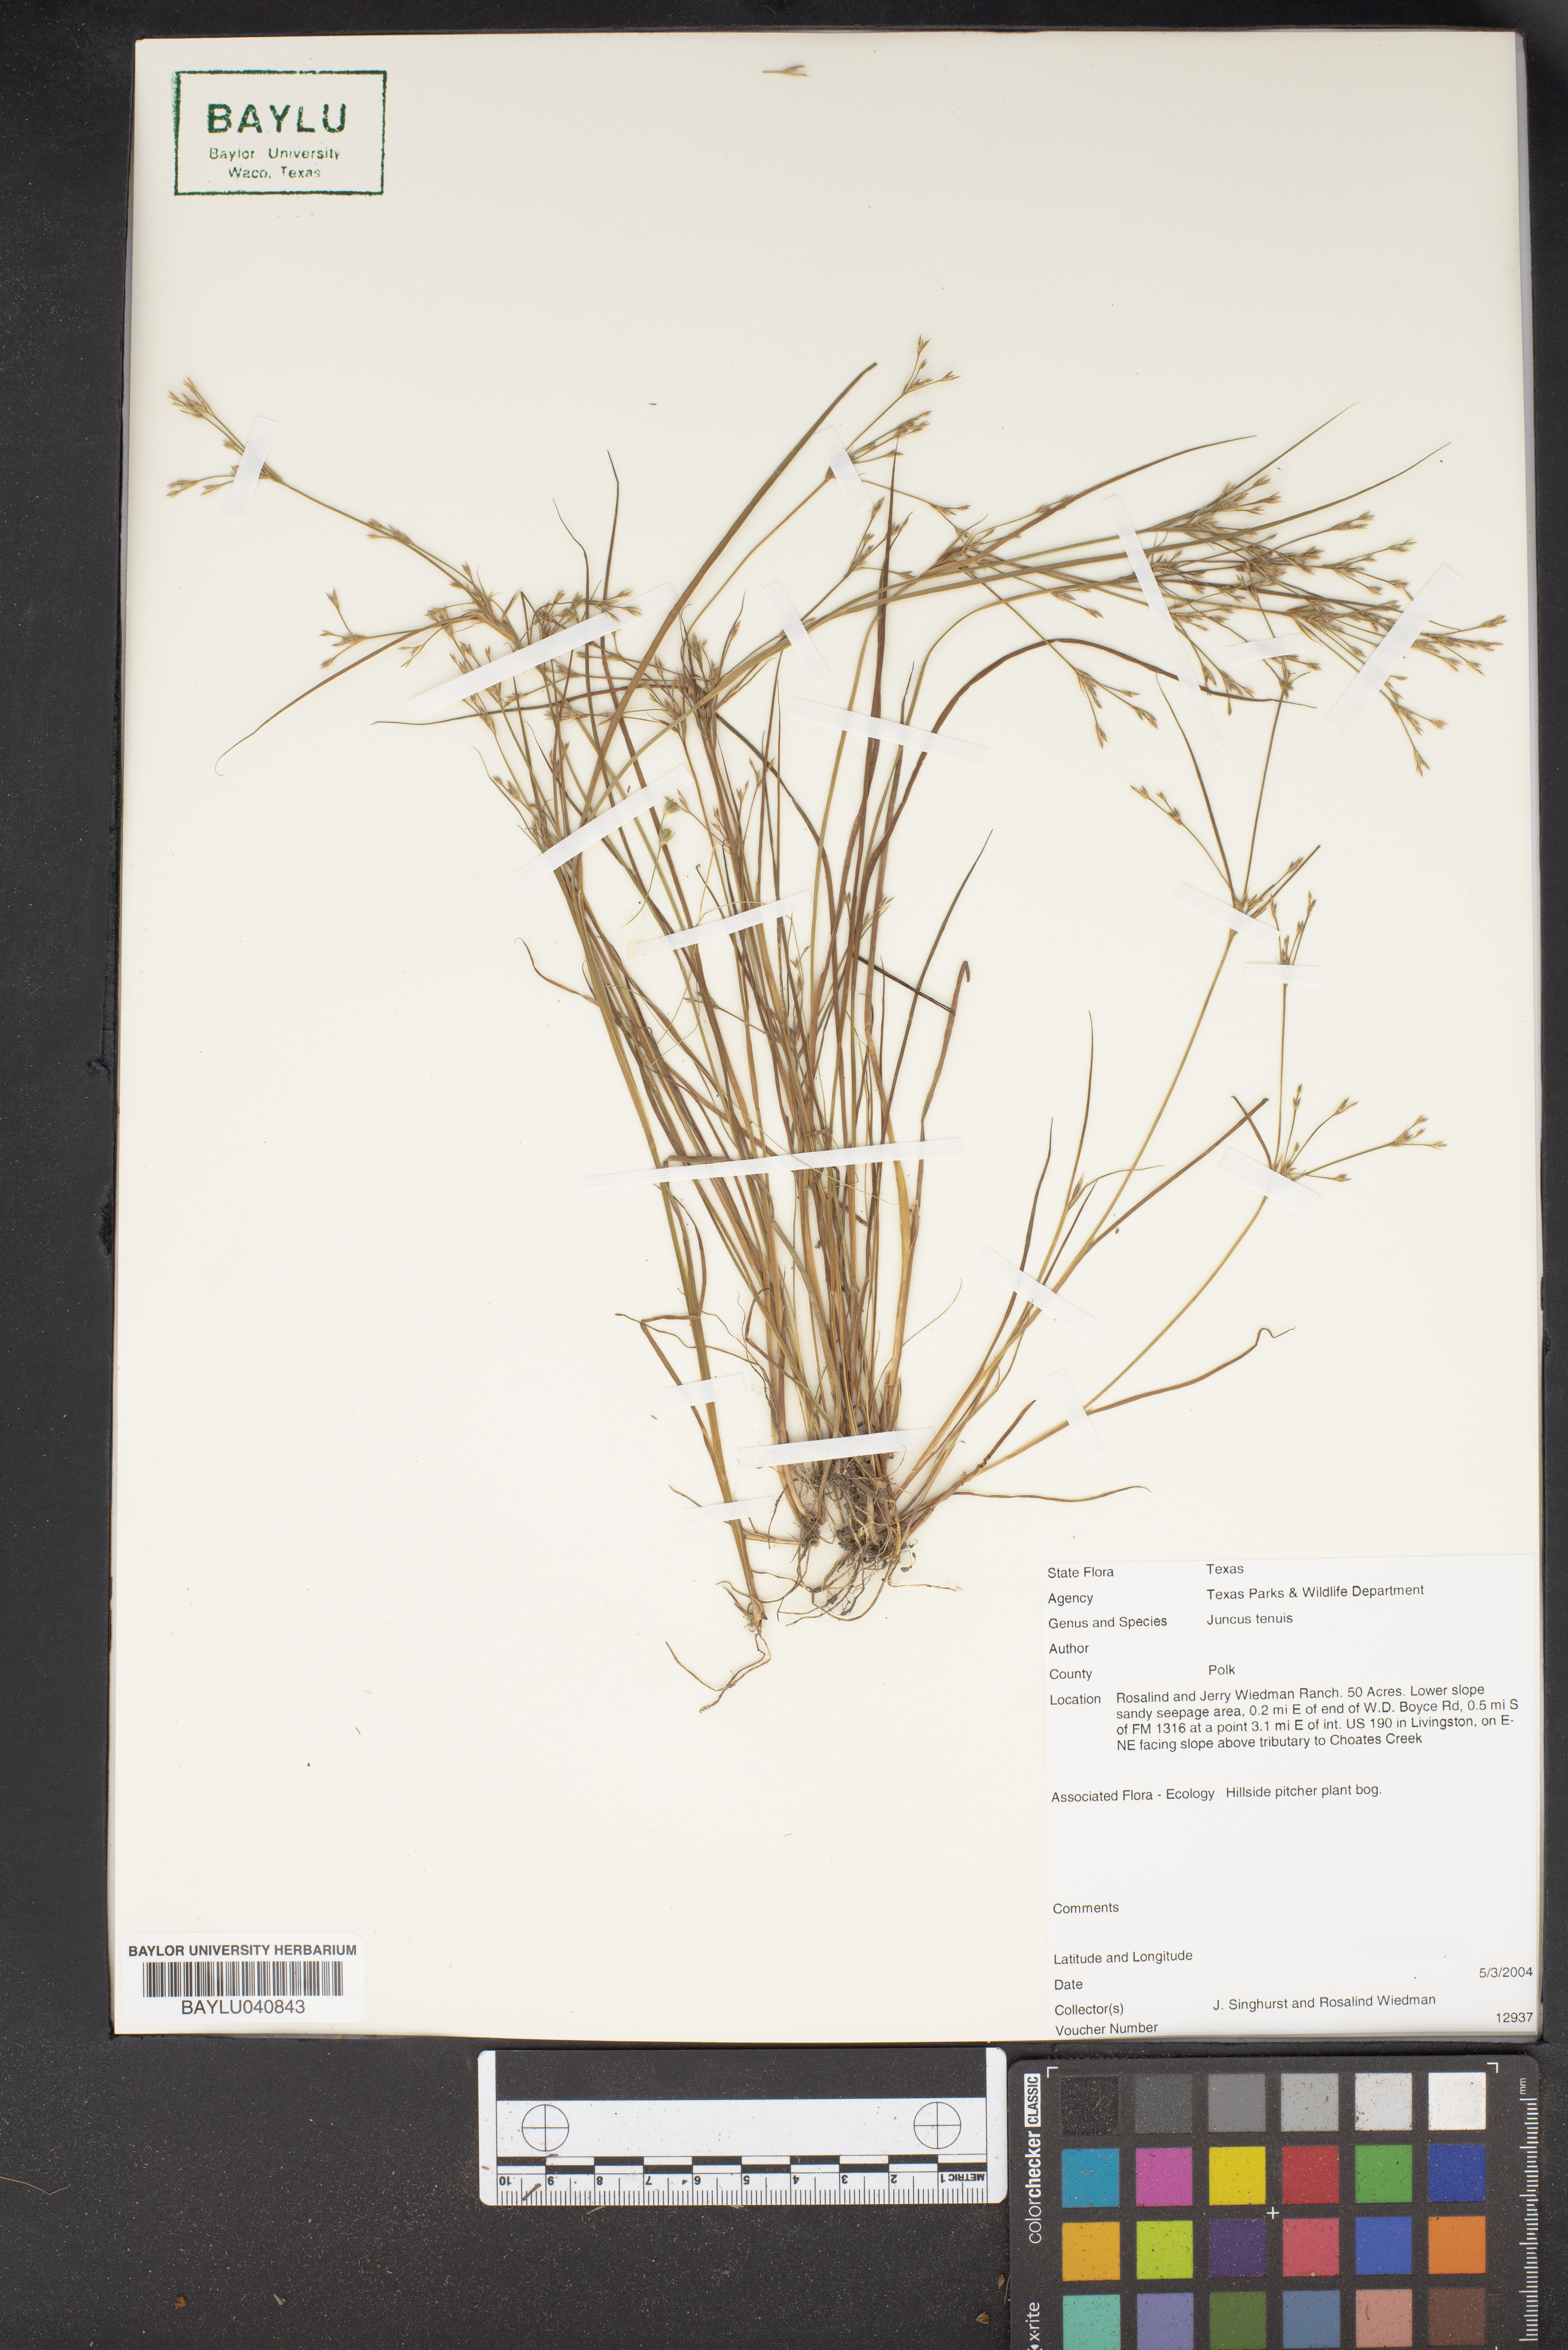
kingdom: Plantae
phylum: Tracheophyta
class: Liliopsida
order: Poales
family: Juncaceae
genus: Juncus
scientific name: Juncus tenuis
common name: Slender rush
